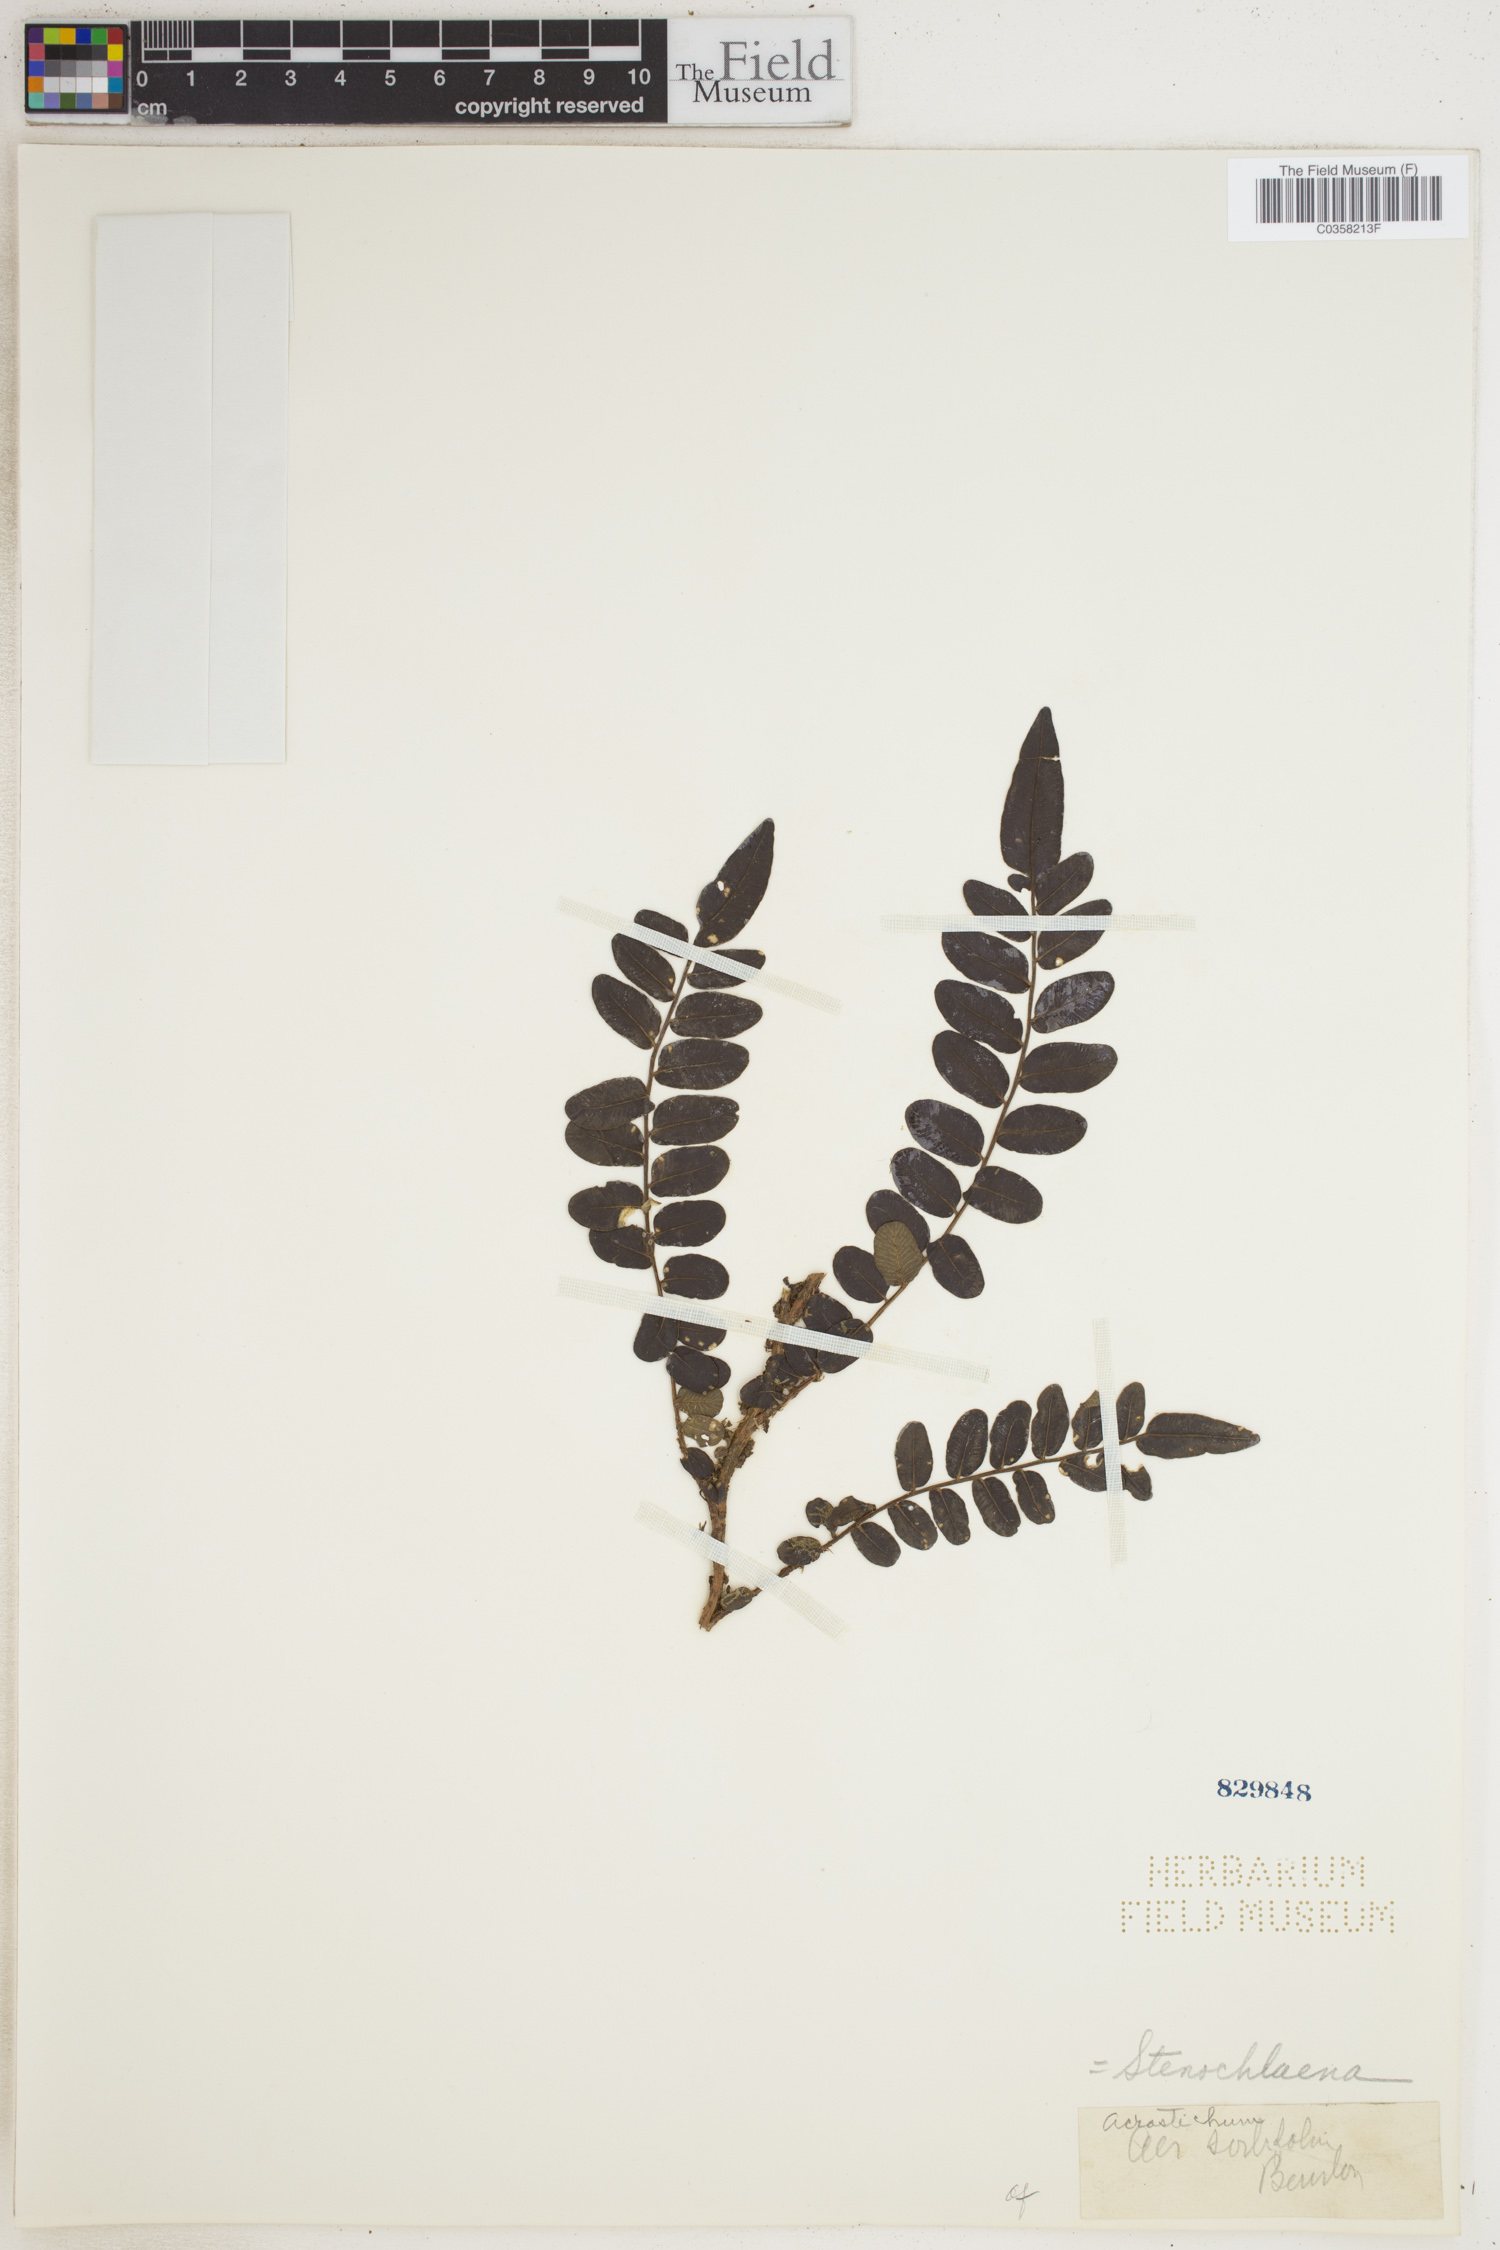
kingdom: Plantae
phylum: Tracheophyta
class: Polypodiopsida
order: Polypodiales
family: Blechnaceae
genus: Stenochlaena
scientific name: Stenochlaena
